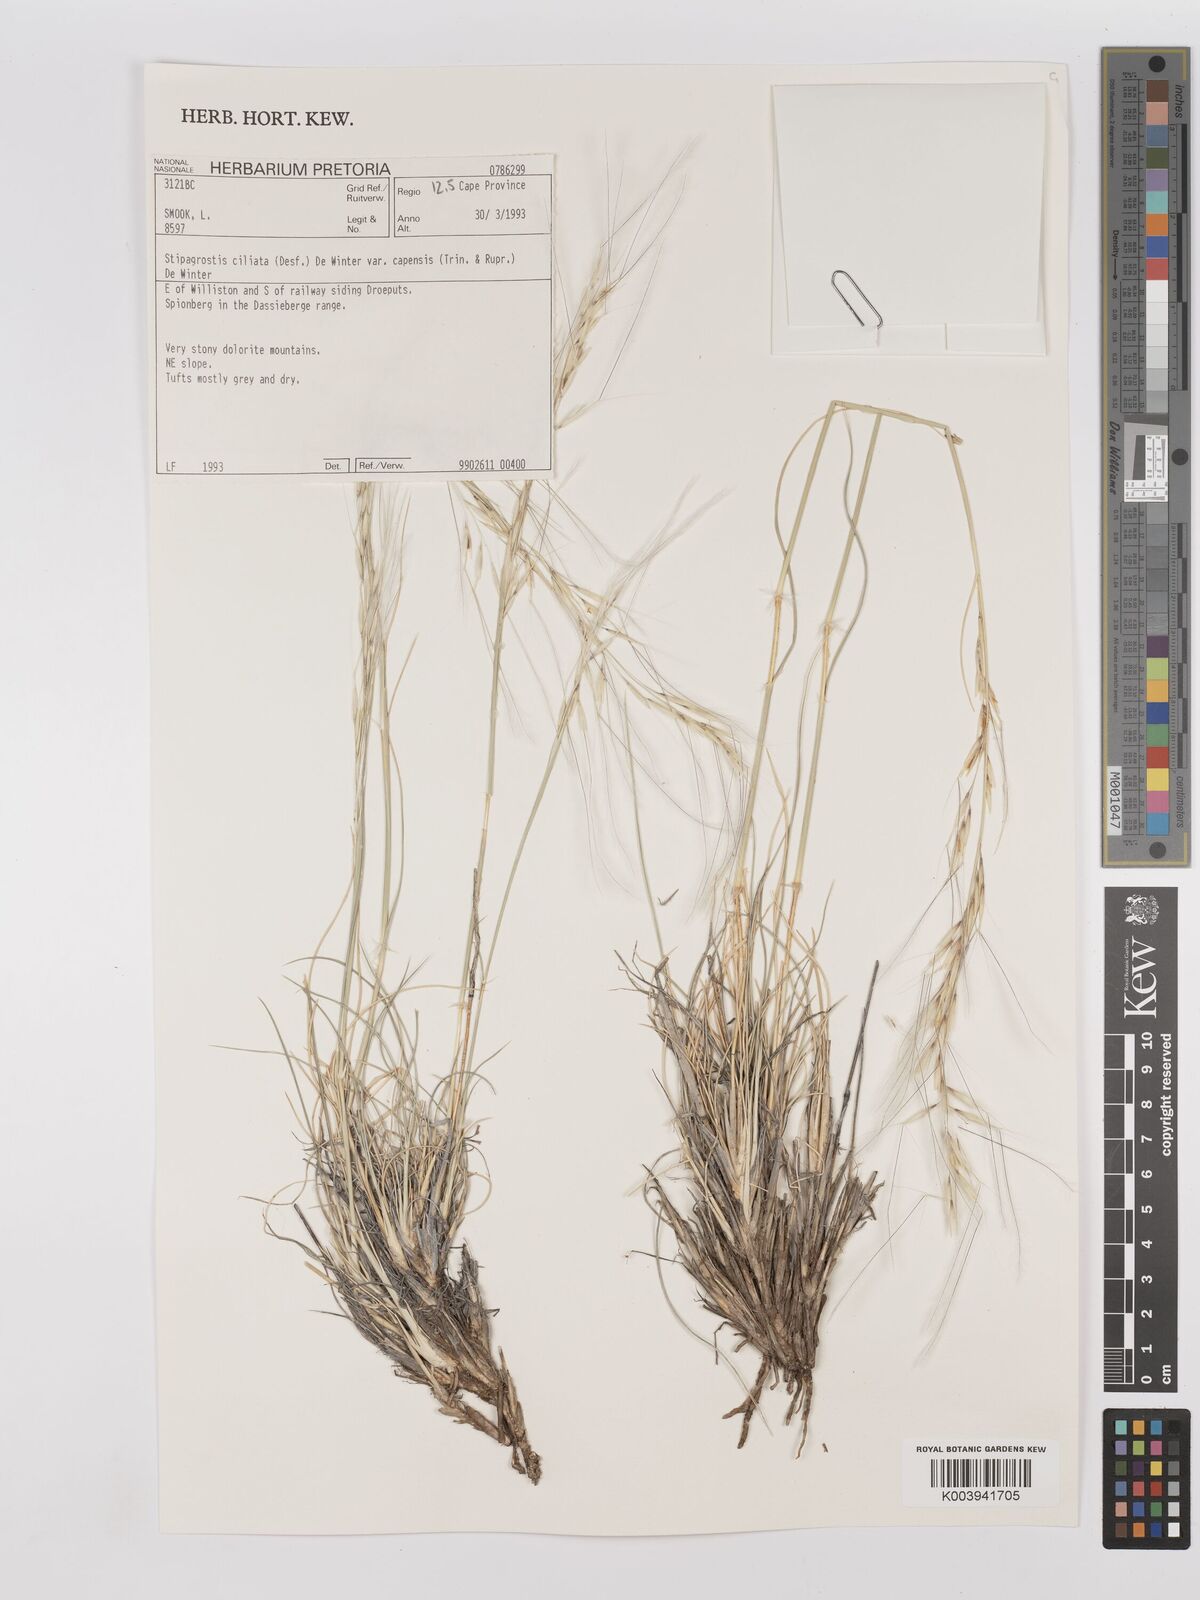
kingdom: Plantae
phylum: Tracheophyta
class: Liliopsida
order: Poales
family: Poaceae
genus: Stipagrostis
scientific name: Stipagrostis ciliata
